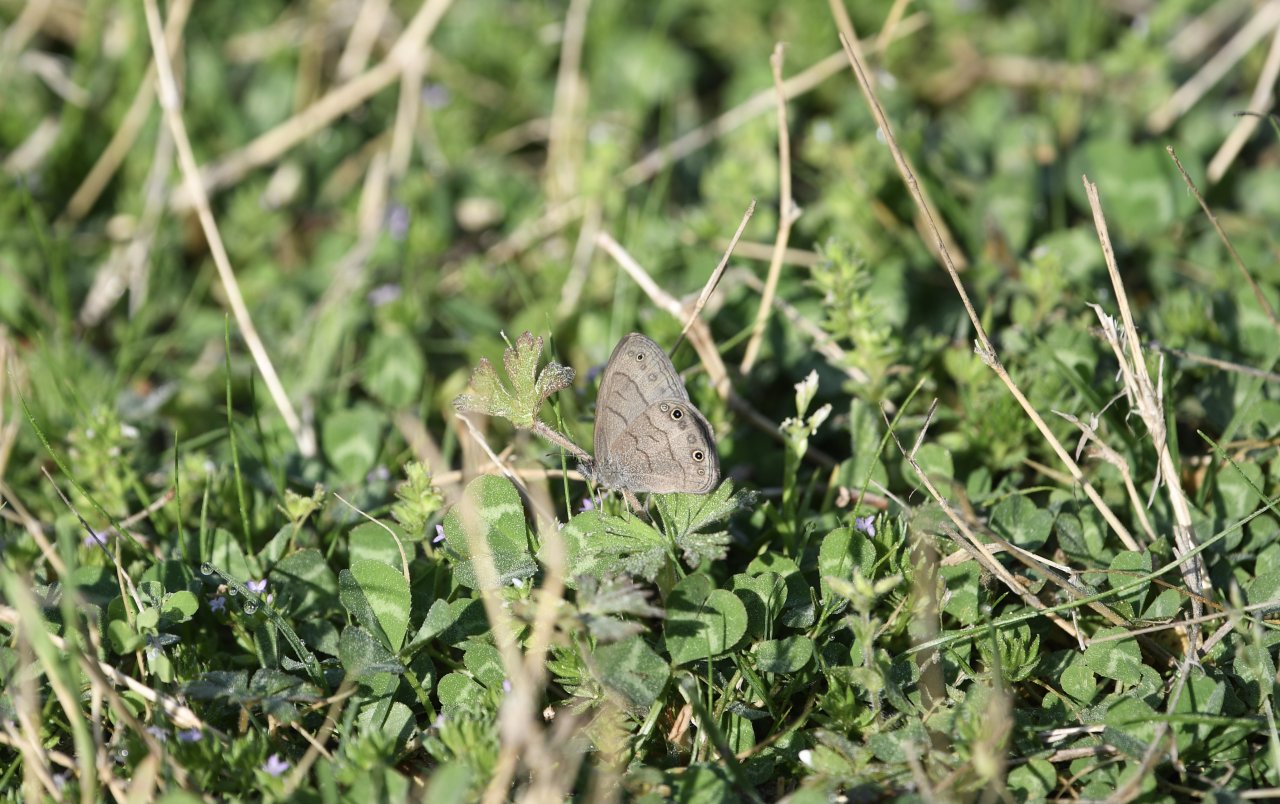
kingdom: Animalia
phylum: Arthropoda
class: Insecta
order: Lepidoptera
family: Nymphalidae
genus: Hermeuptychia
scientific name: Hermeuptychia hermes
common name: Carolina Satyr
